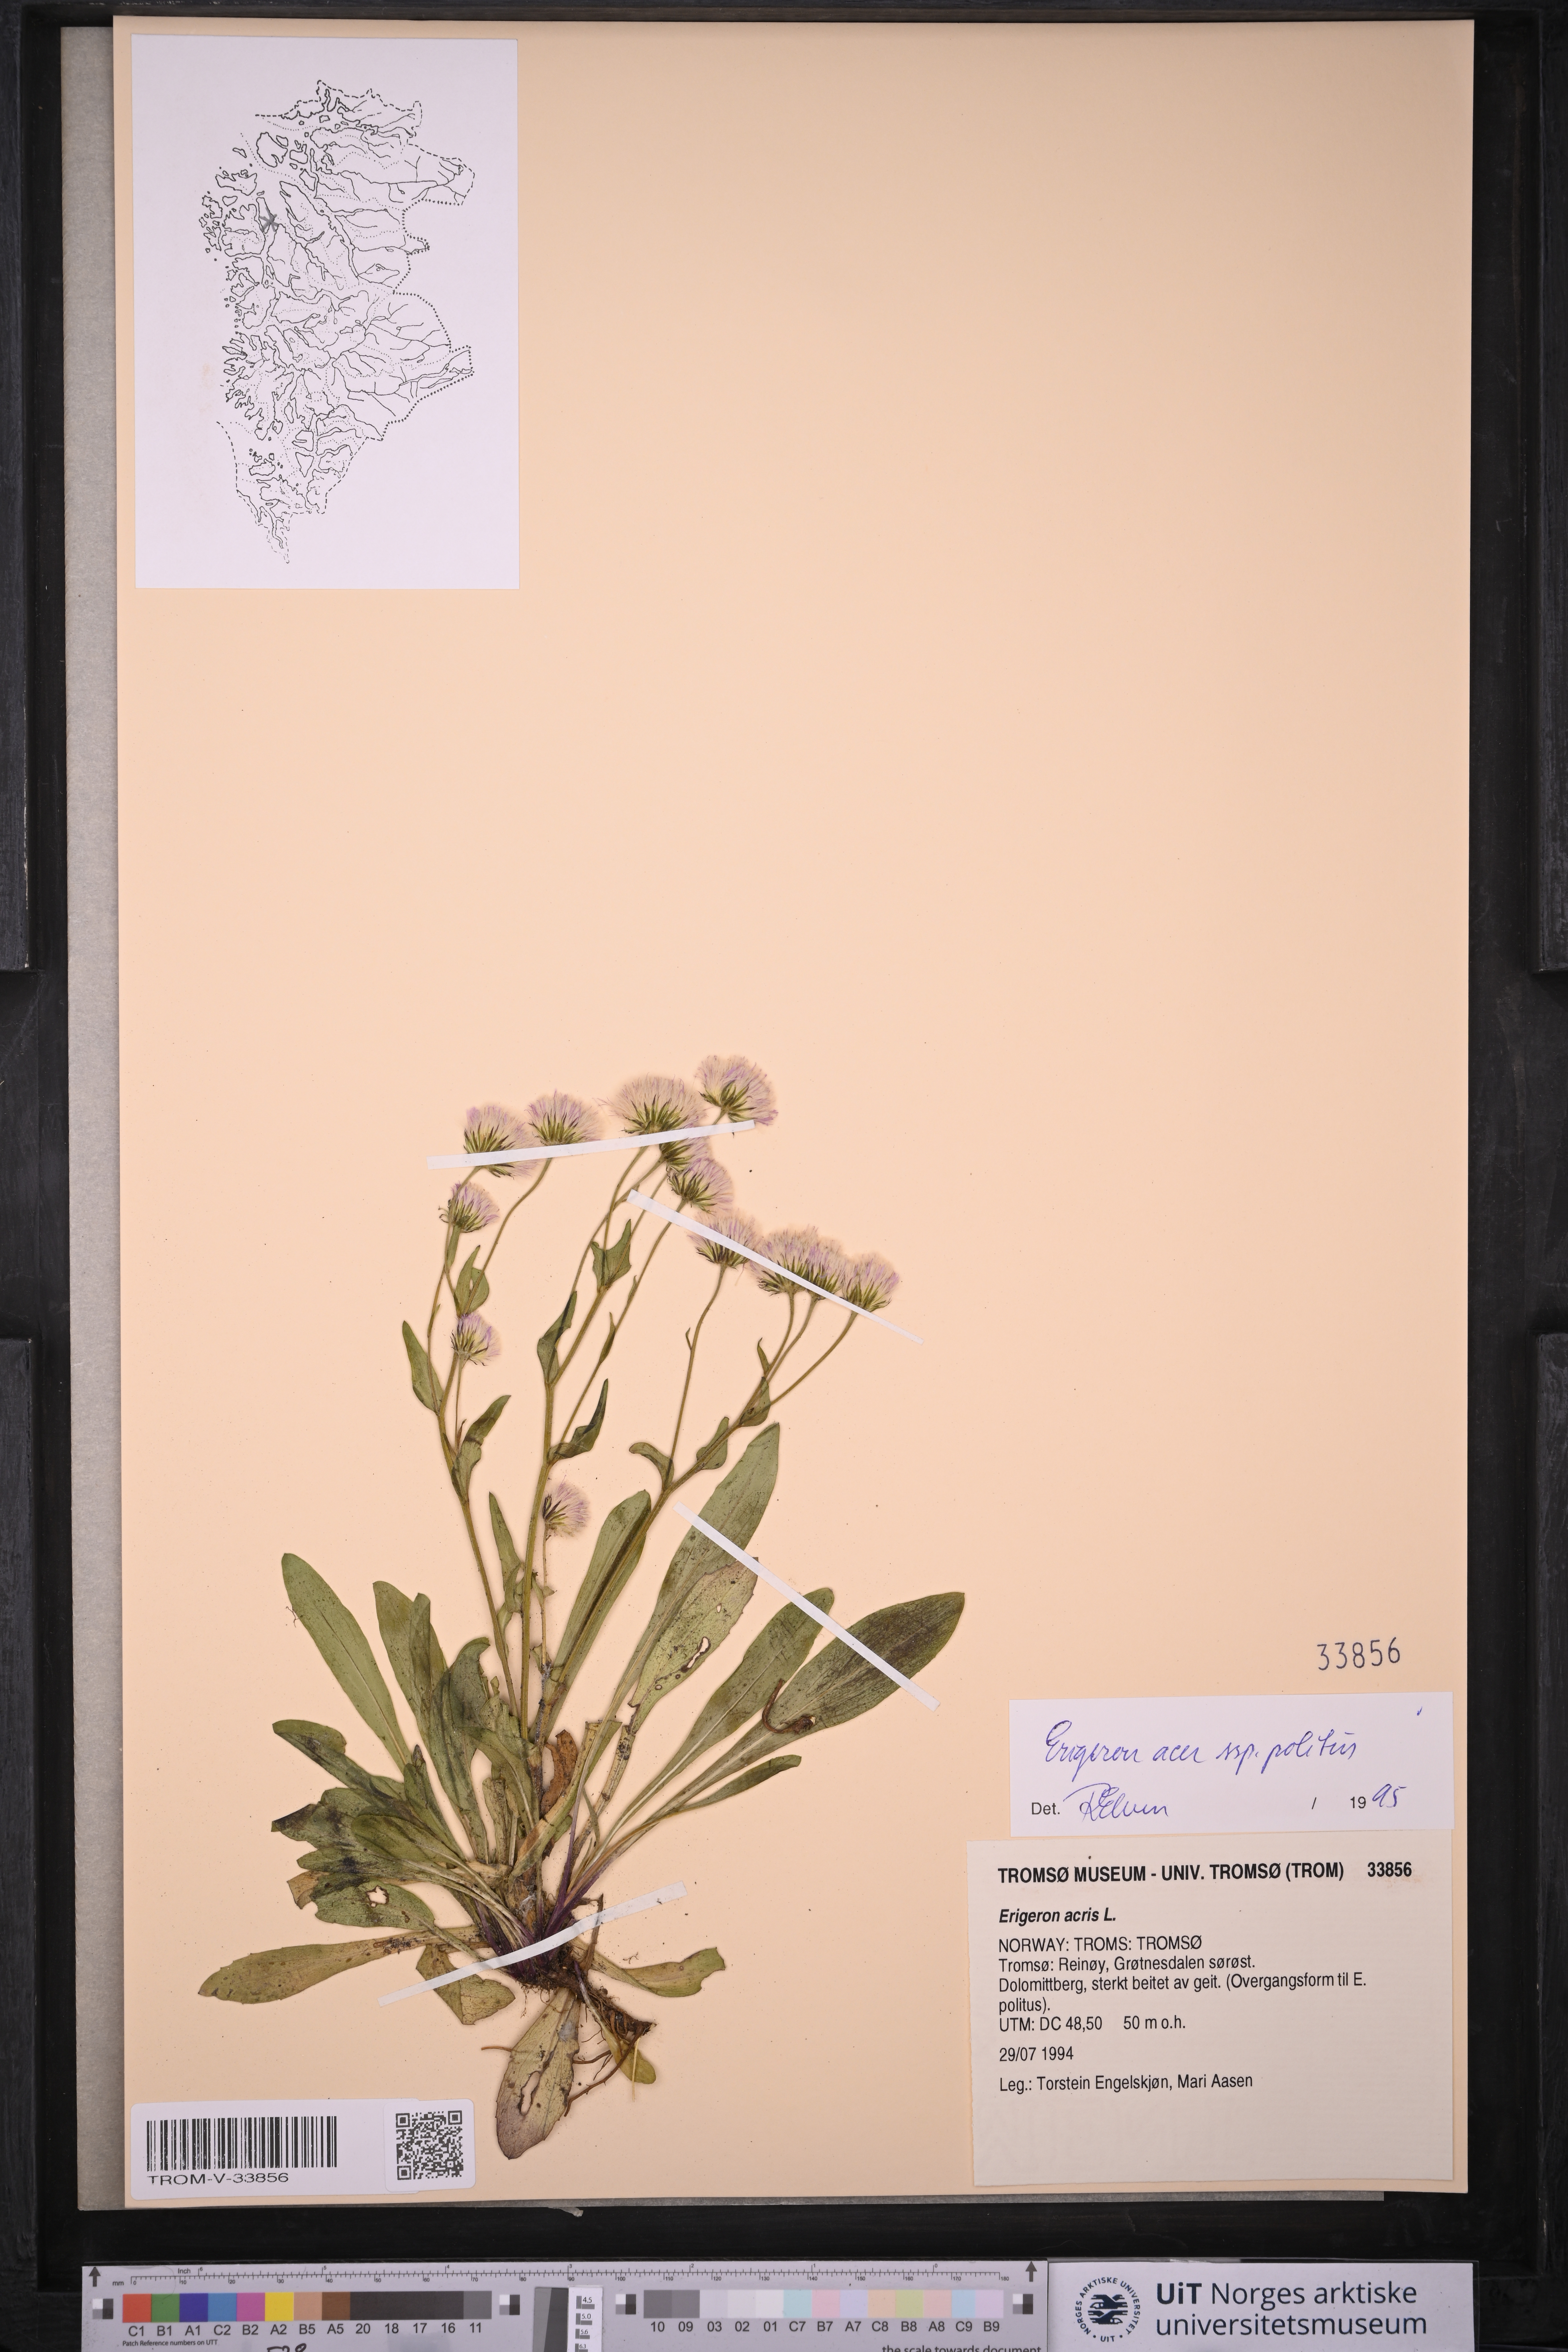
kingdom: Plantae
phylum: Tracheophyta
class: Magnoliopsida
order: Asterales
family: Asteraceae
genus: Erigeron
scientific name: Erigeron politus
